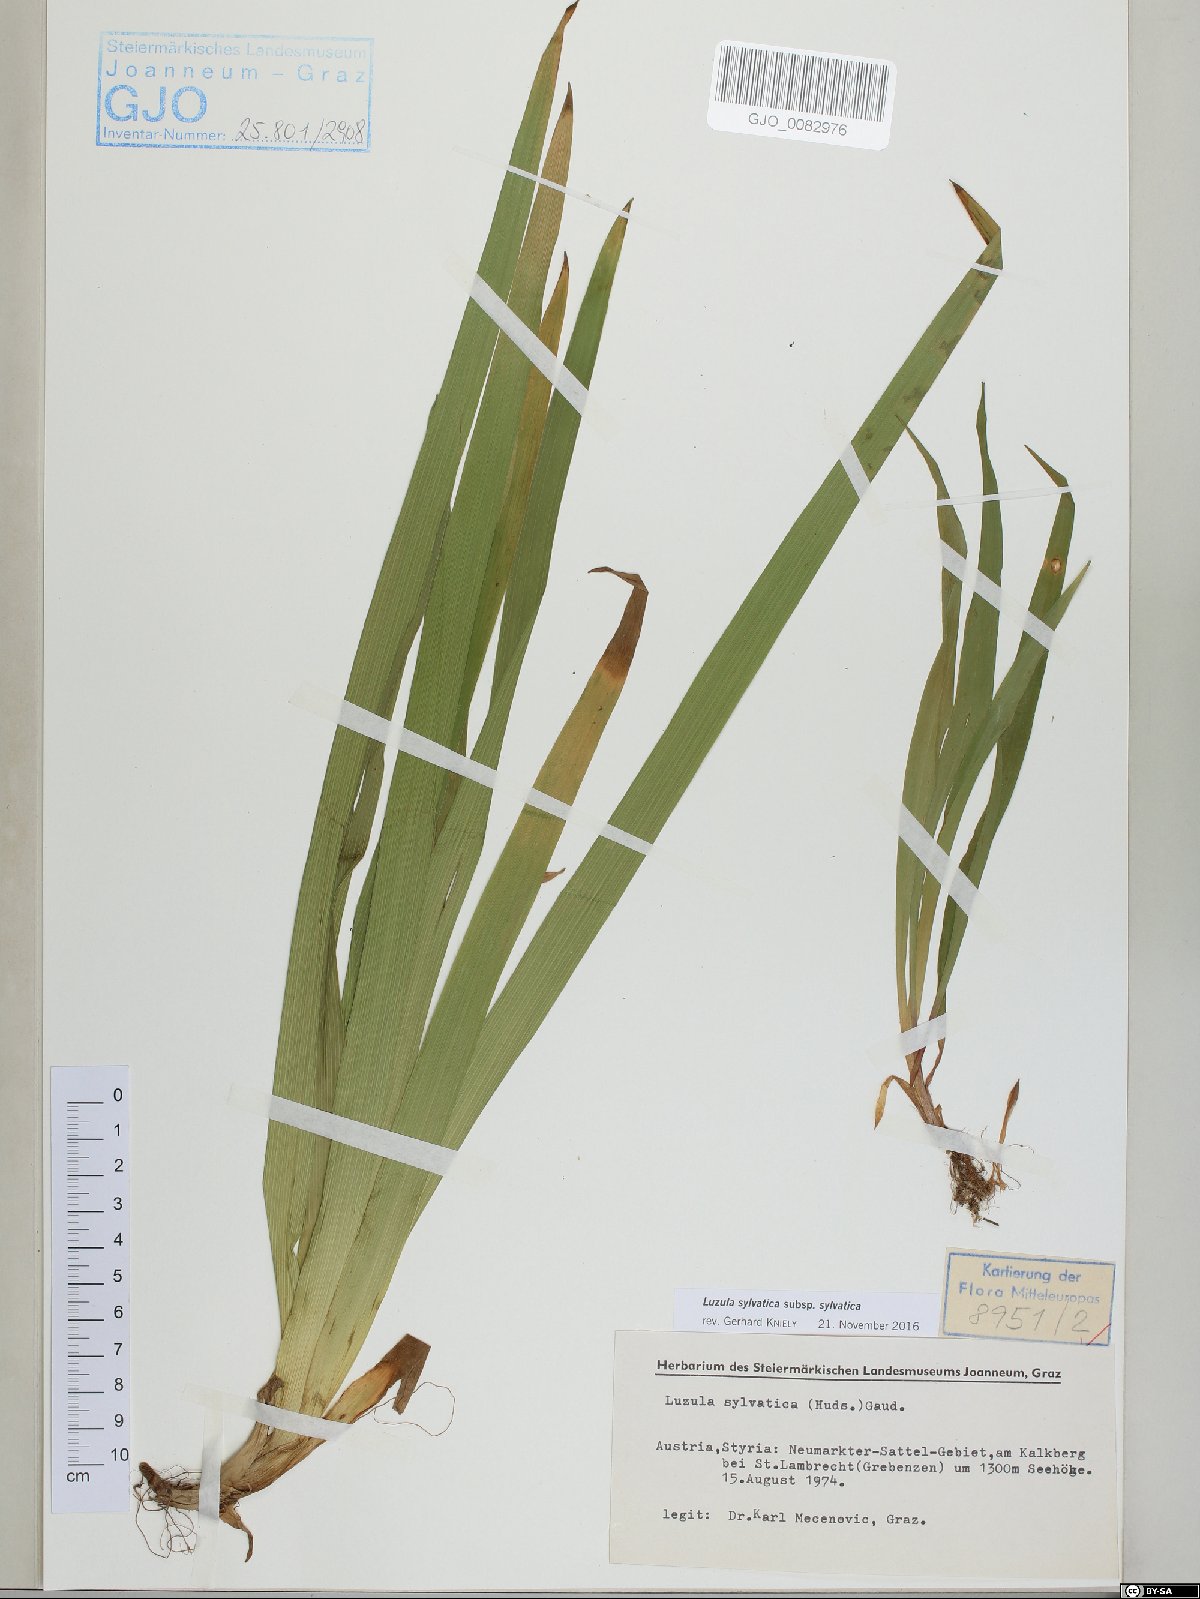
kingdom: Plantae
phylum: Tracheophyta
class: Liliopsida
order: Poales
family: Juncaceae
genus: Luzula
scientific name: Luzula sylvatica
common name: Great wood-rush
